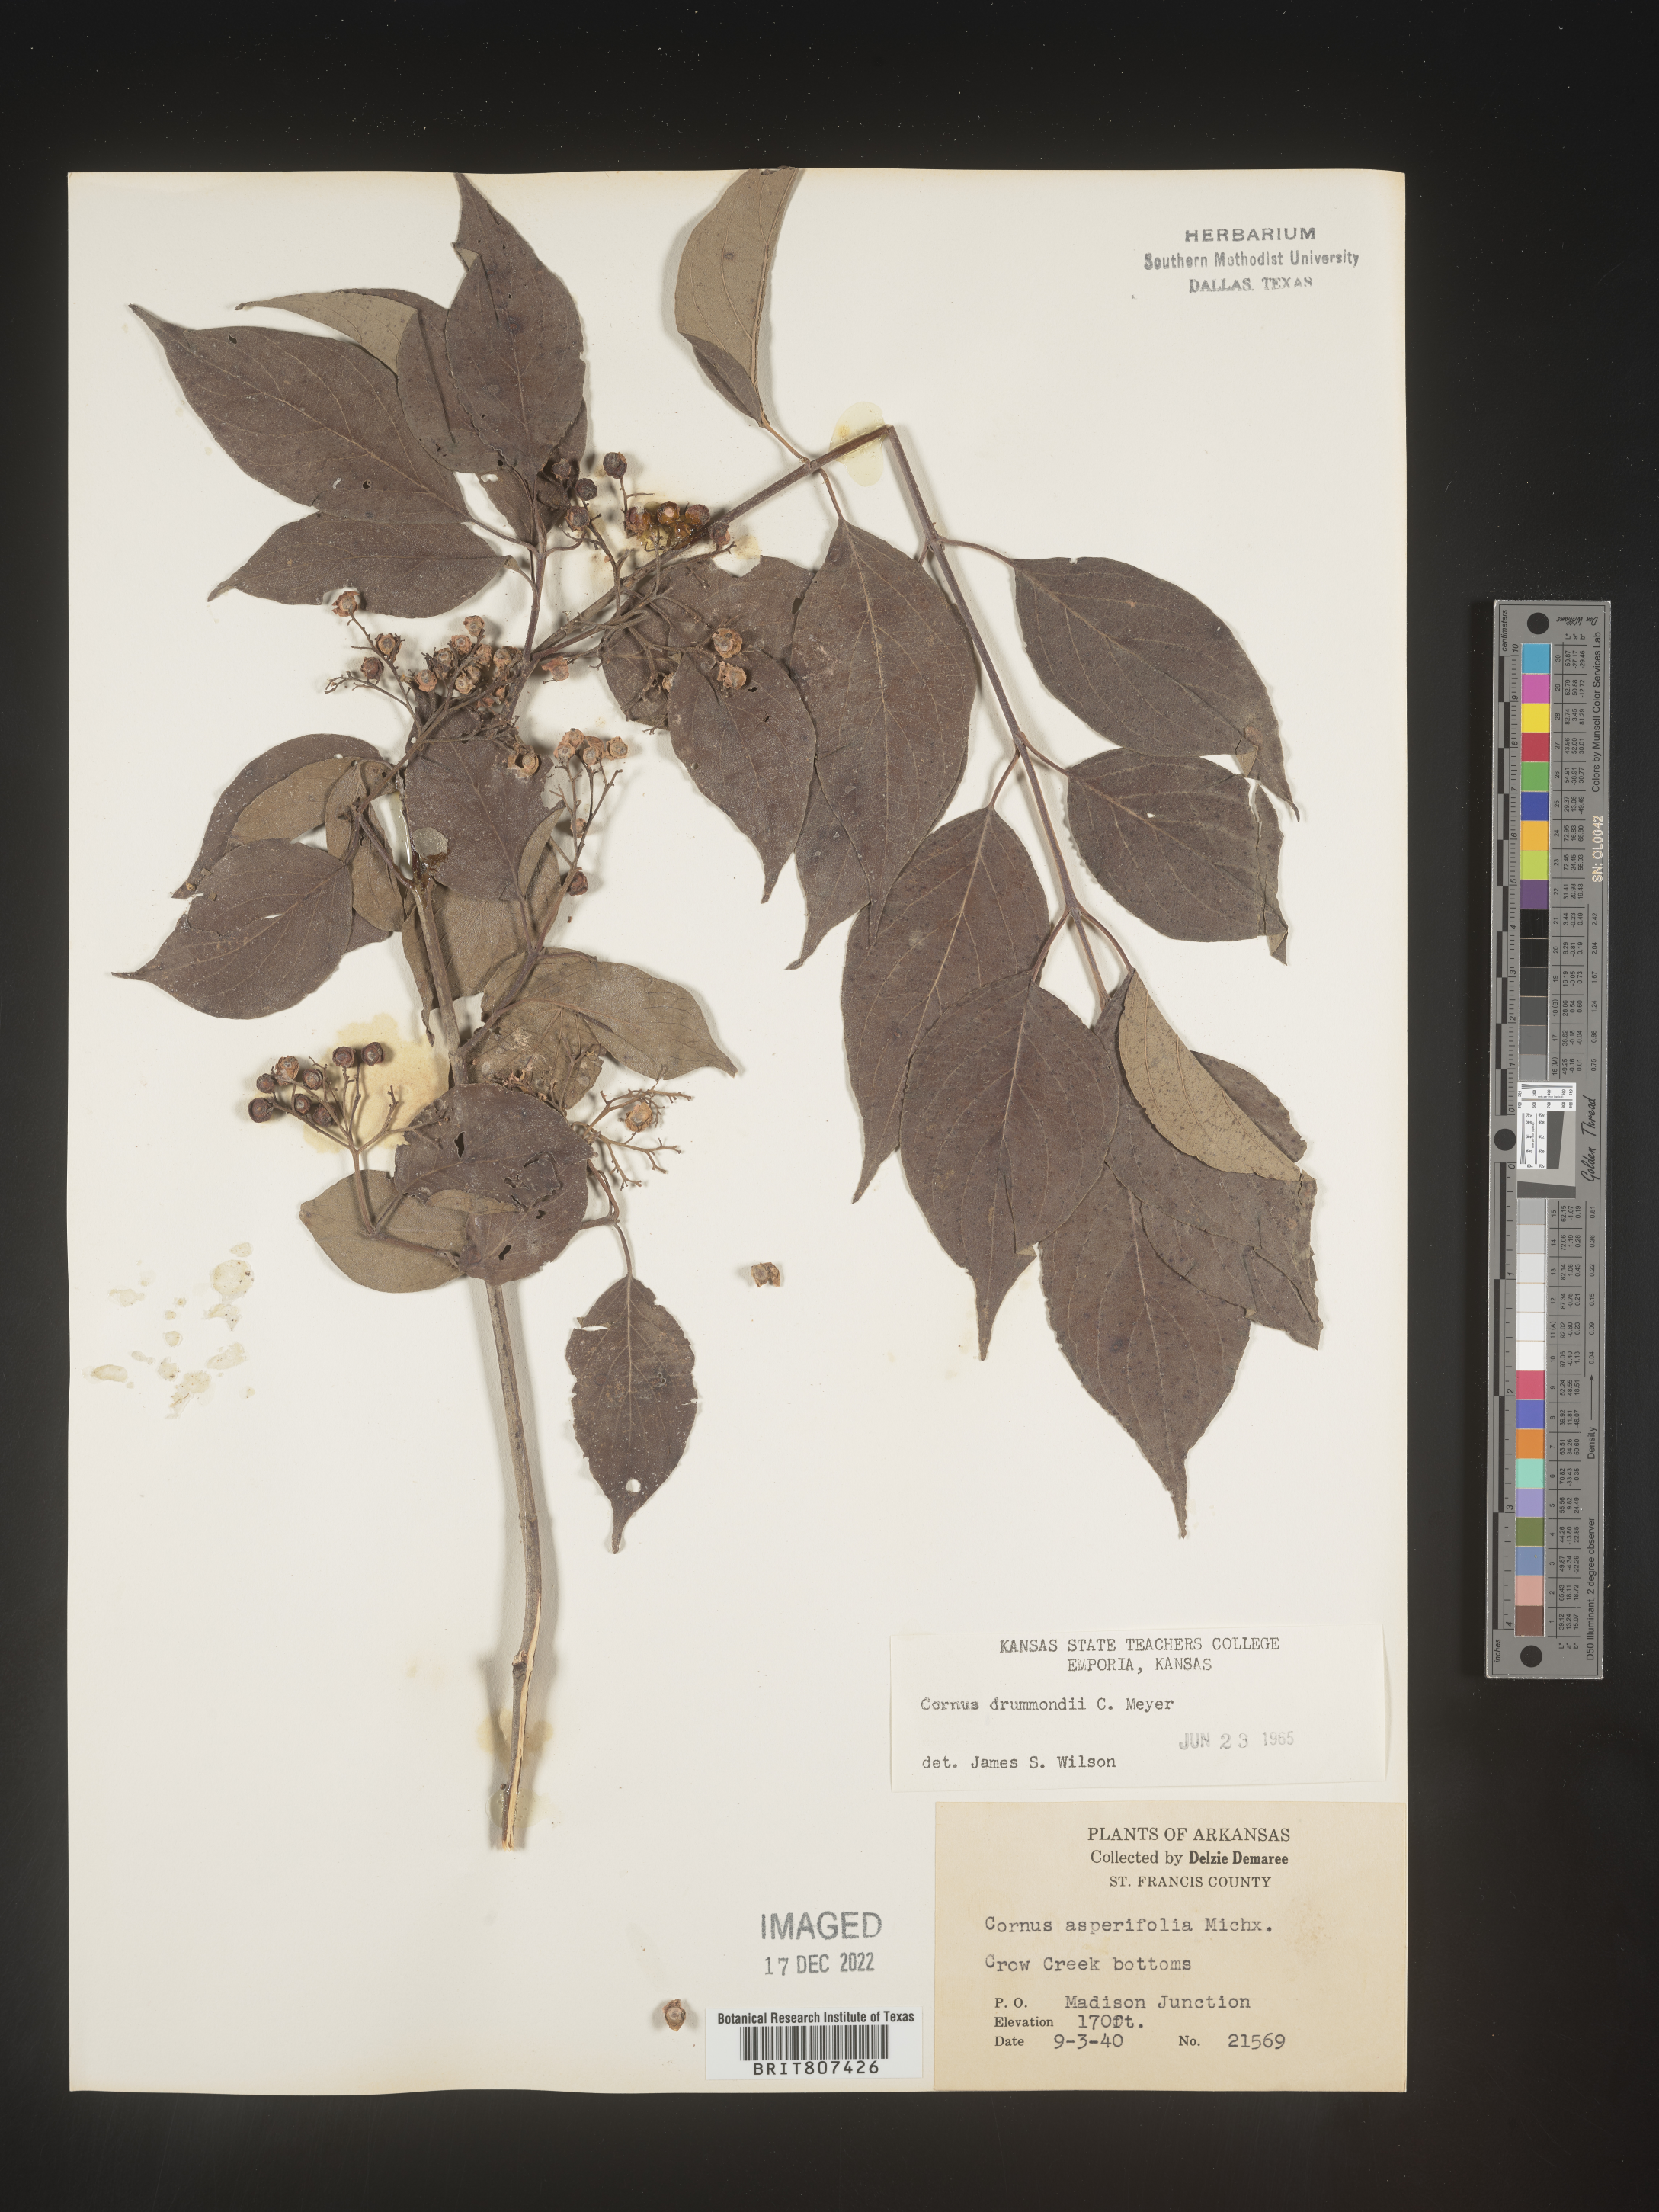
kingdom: Plantae
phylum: Tracheophyta
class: Magnoliopsida
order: Cornales
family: Cornaceae
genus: Cornus
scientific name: Cornus drummondii
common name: Rough-leaf dogwood
